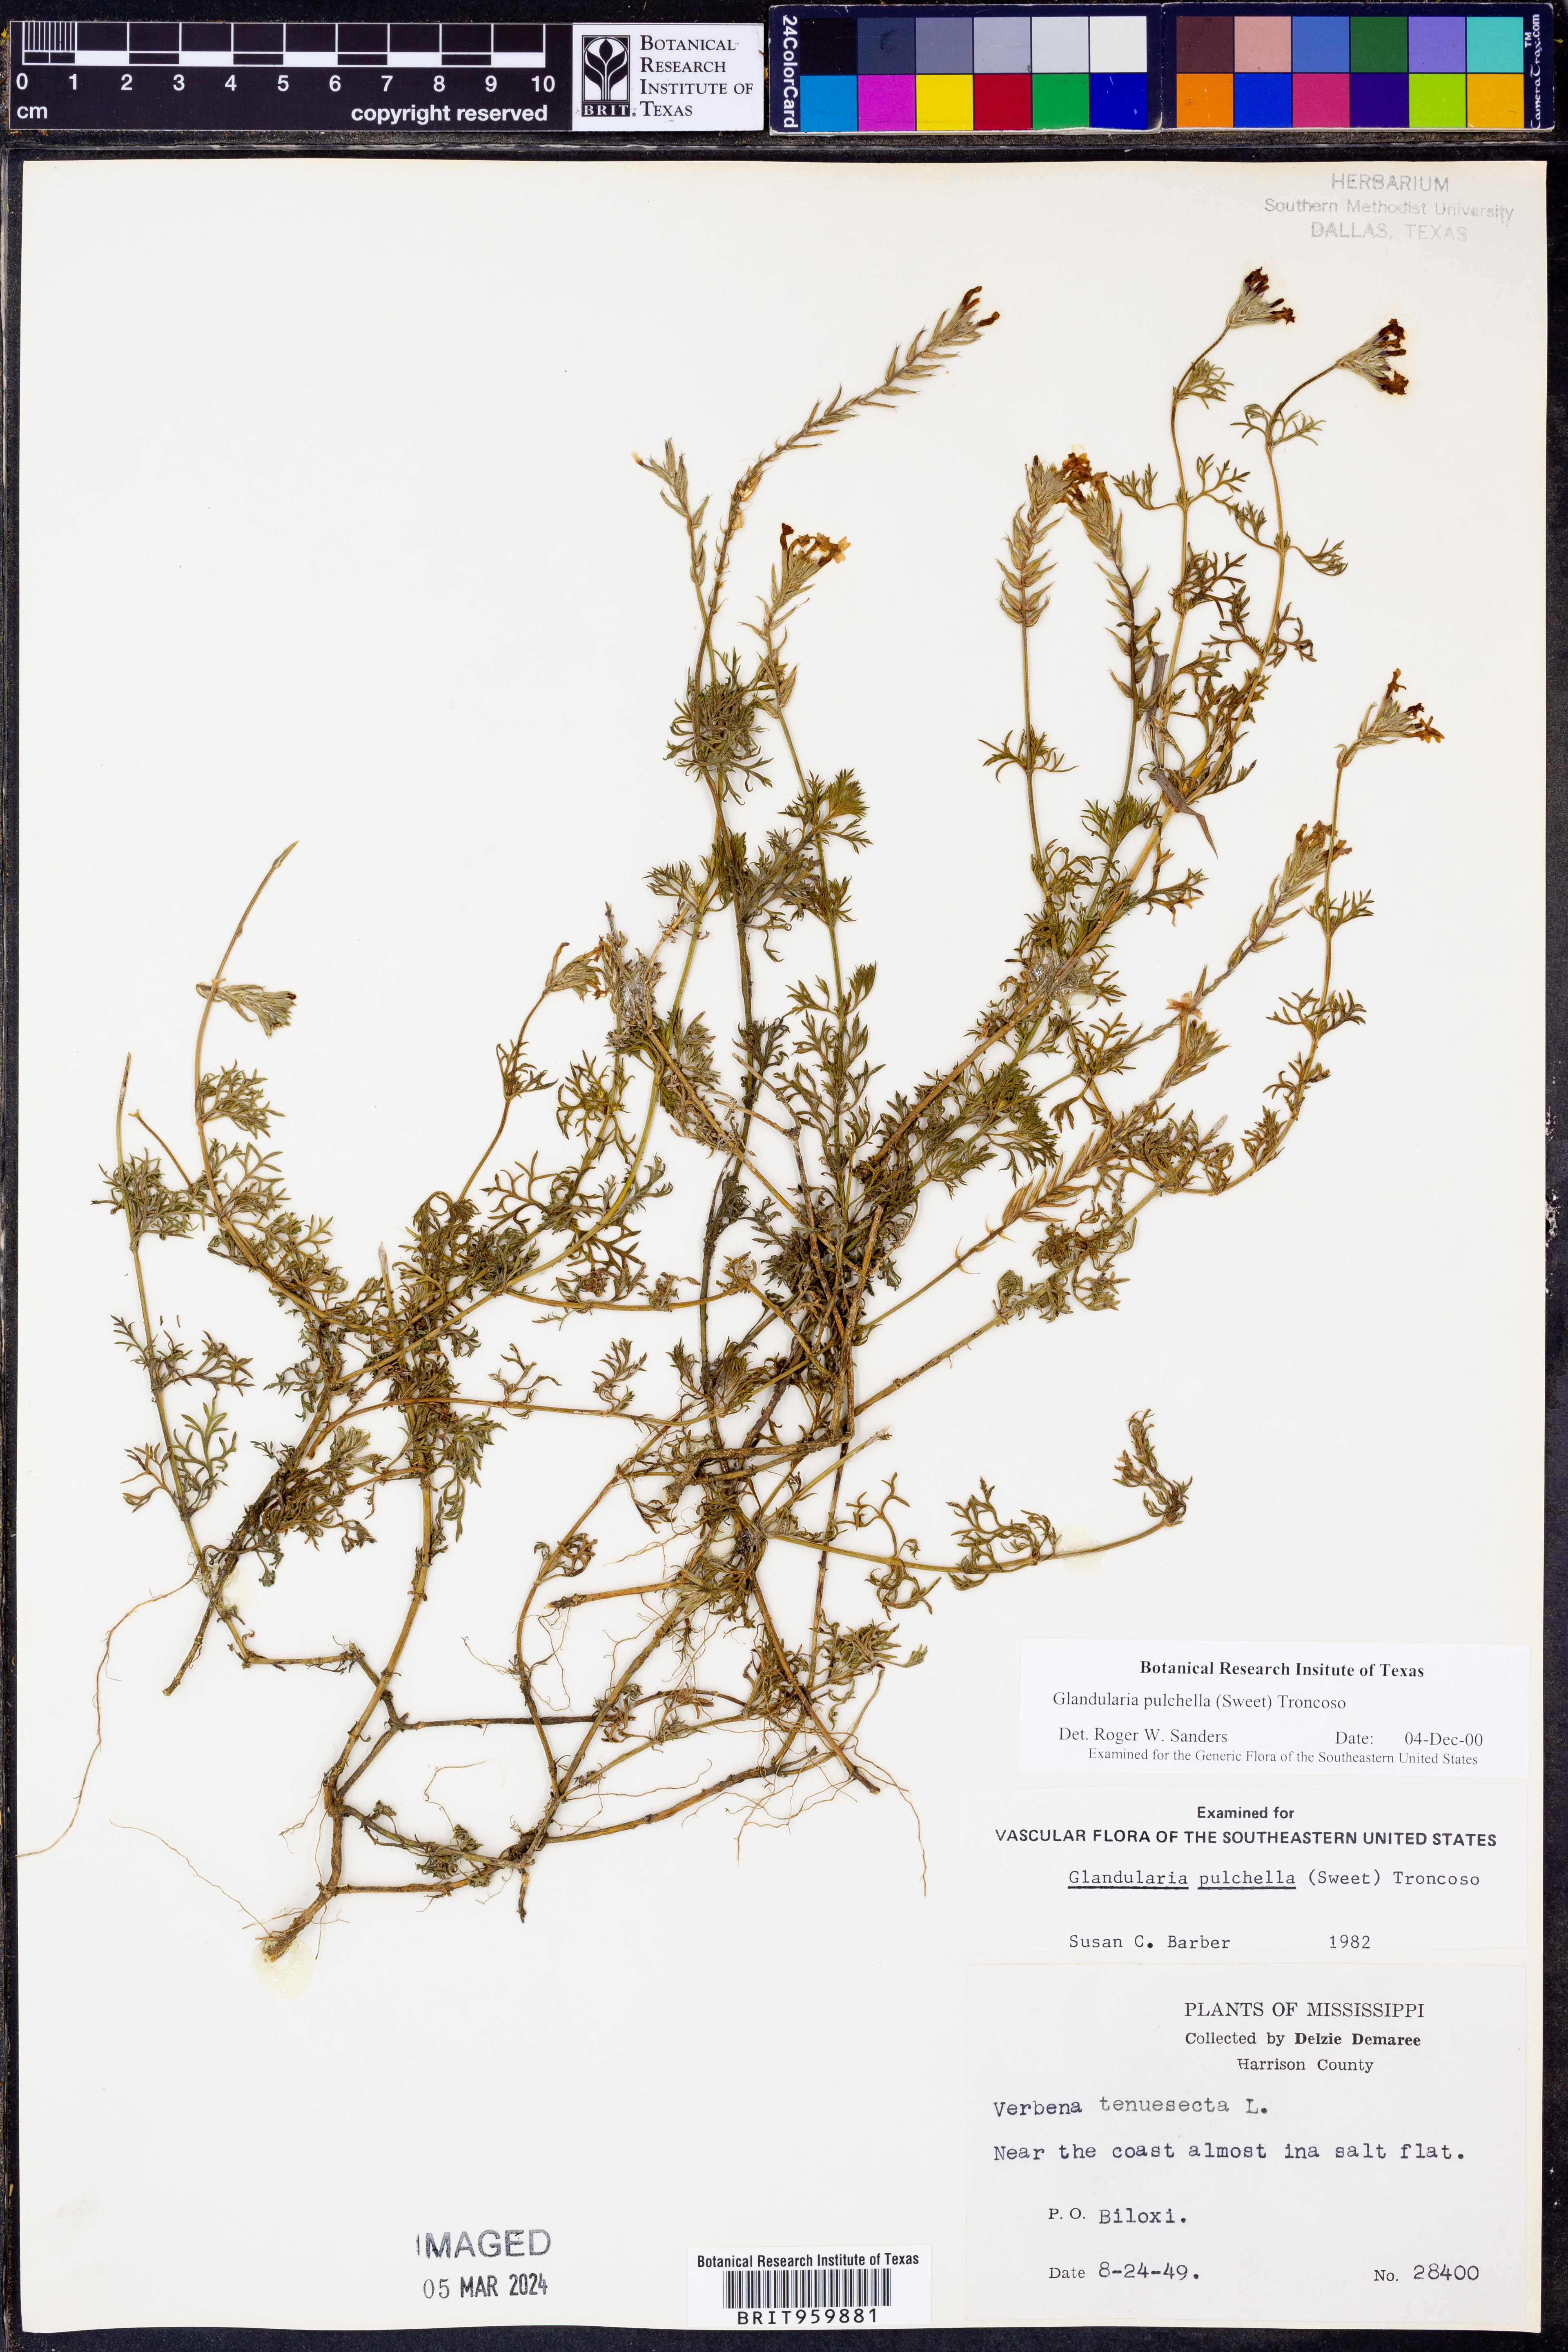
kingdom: Plantae
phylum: Tracheophyta
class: Magnoliopsida
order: Lamiales
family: Verbenaceae
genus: Verbena
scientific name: Verbena tenera
